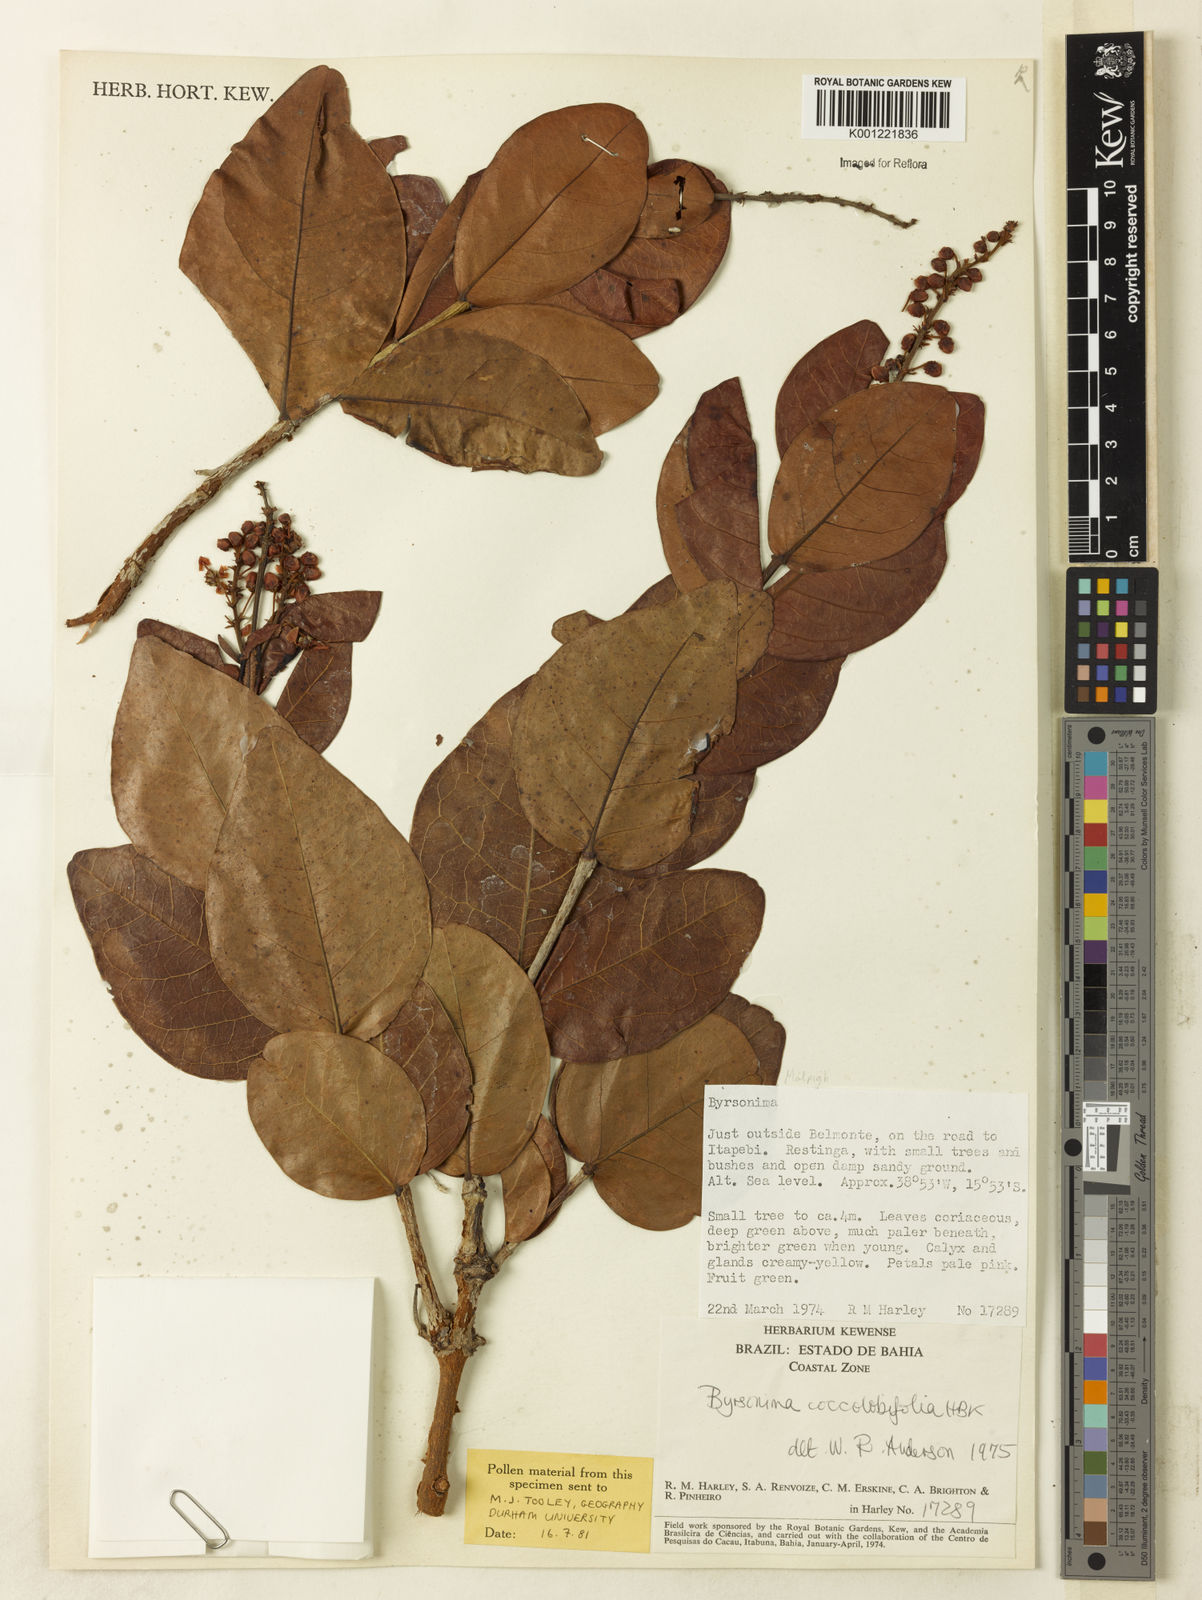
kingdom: Plantae
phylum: Tracheophyta
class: Magnoliopsida
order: Malpighiales
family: Malpighiaceae
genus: Byrsonima
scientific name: Byrsonima coccolobifolia
